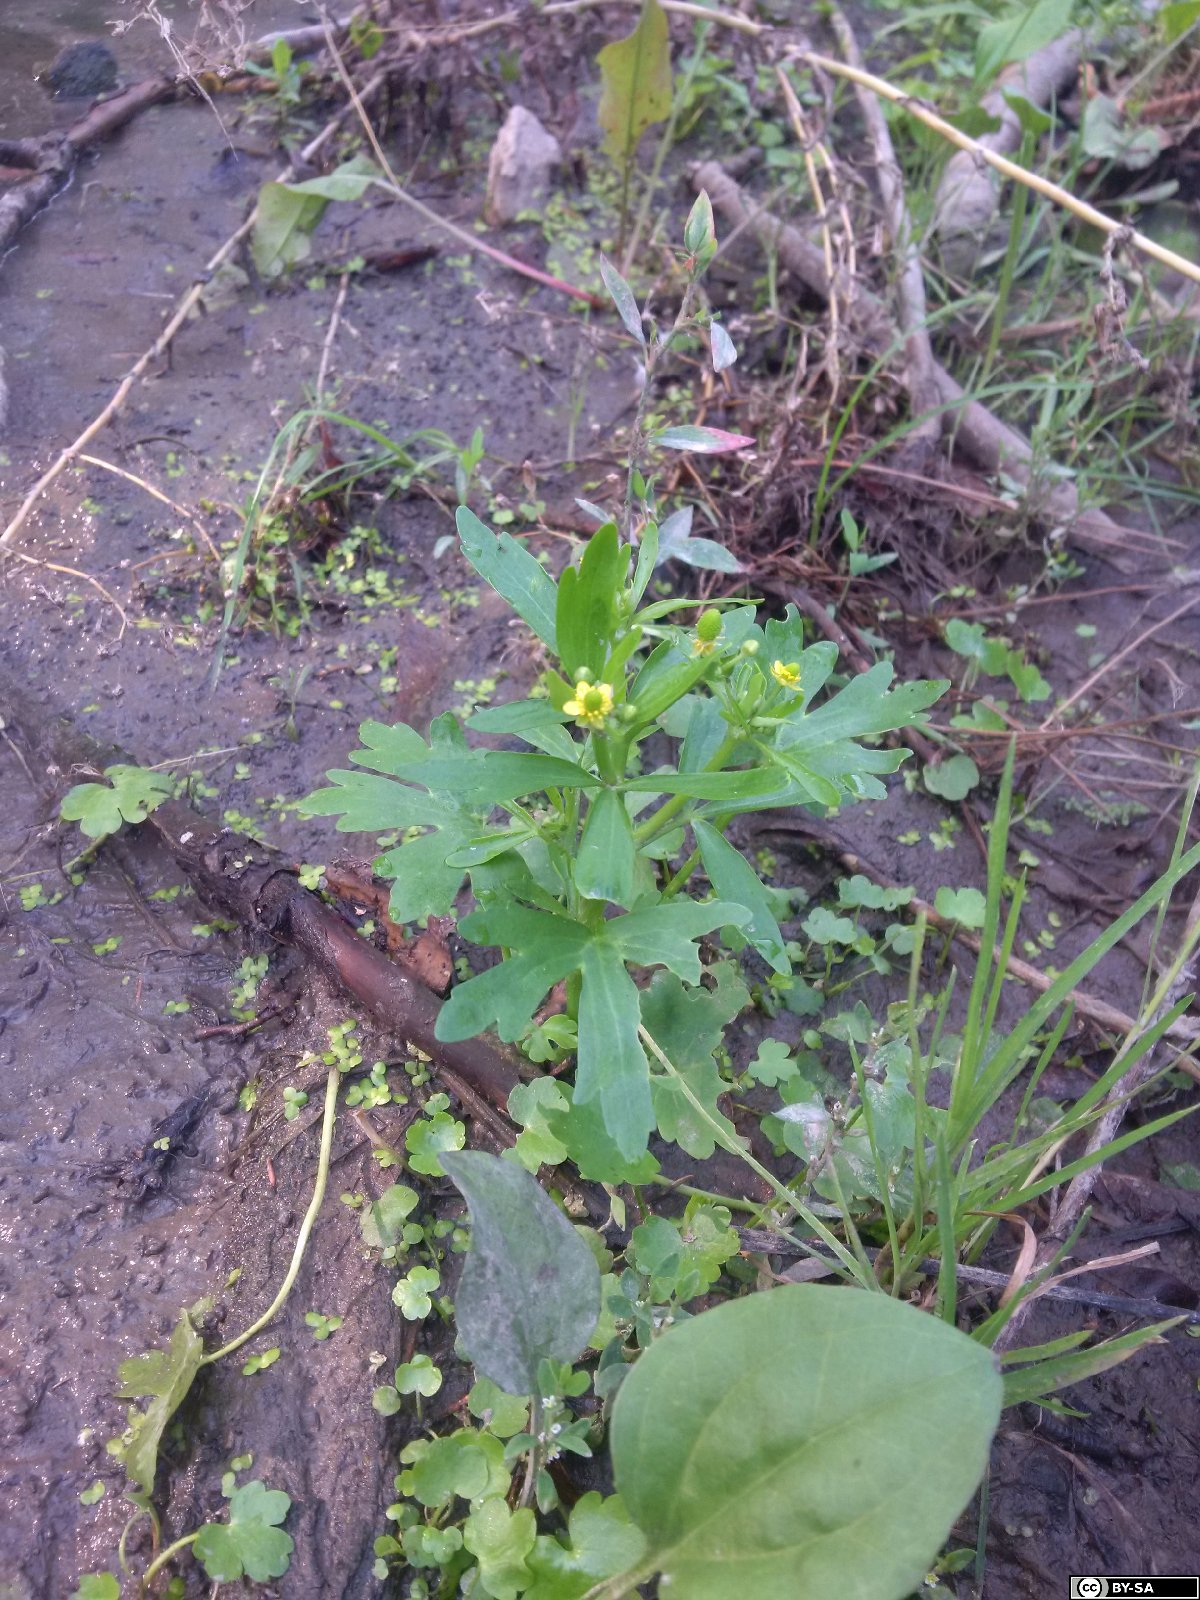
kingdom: Plantae
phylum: Tracheophyta
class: Magnoliopsida
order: Ranunculales
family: Ranunculaceae
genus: Ranunculus
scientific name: Ranunculus sceleratus
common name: Celery-leaved buttercup
